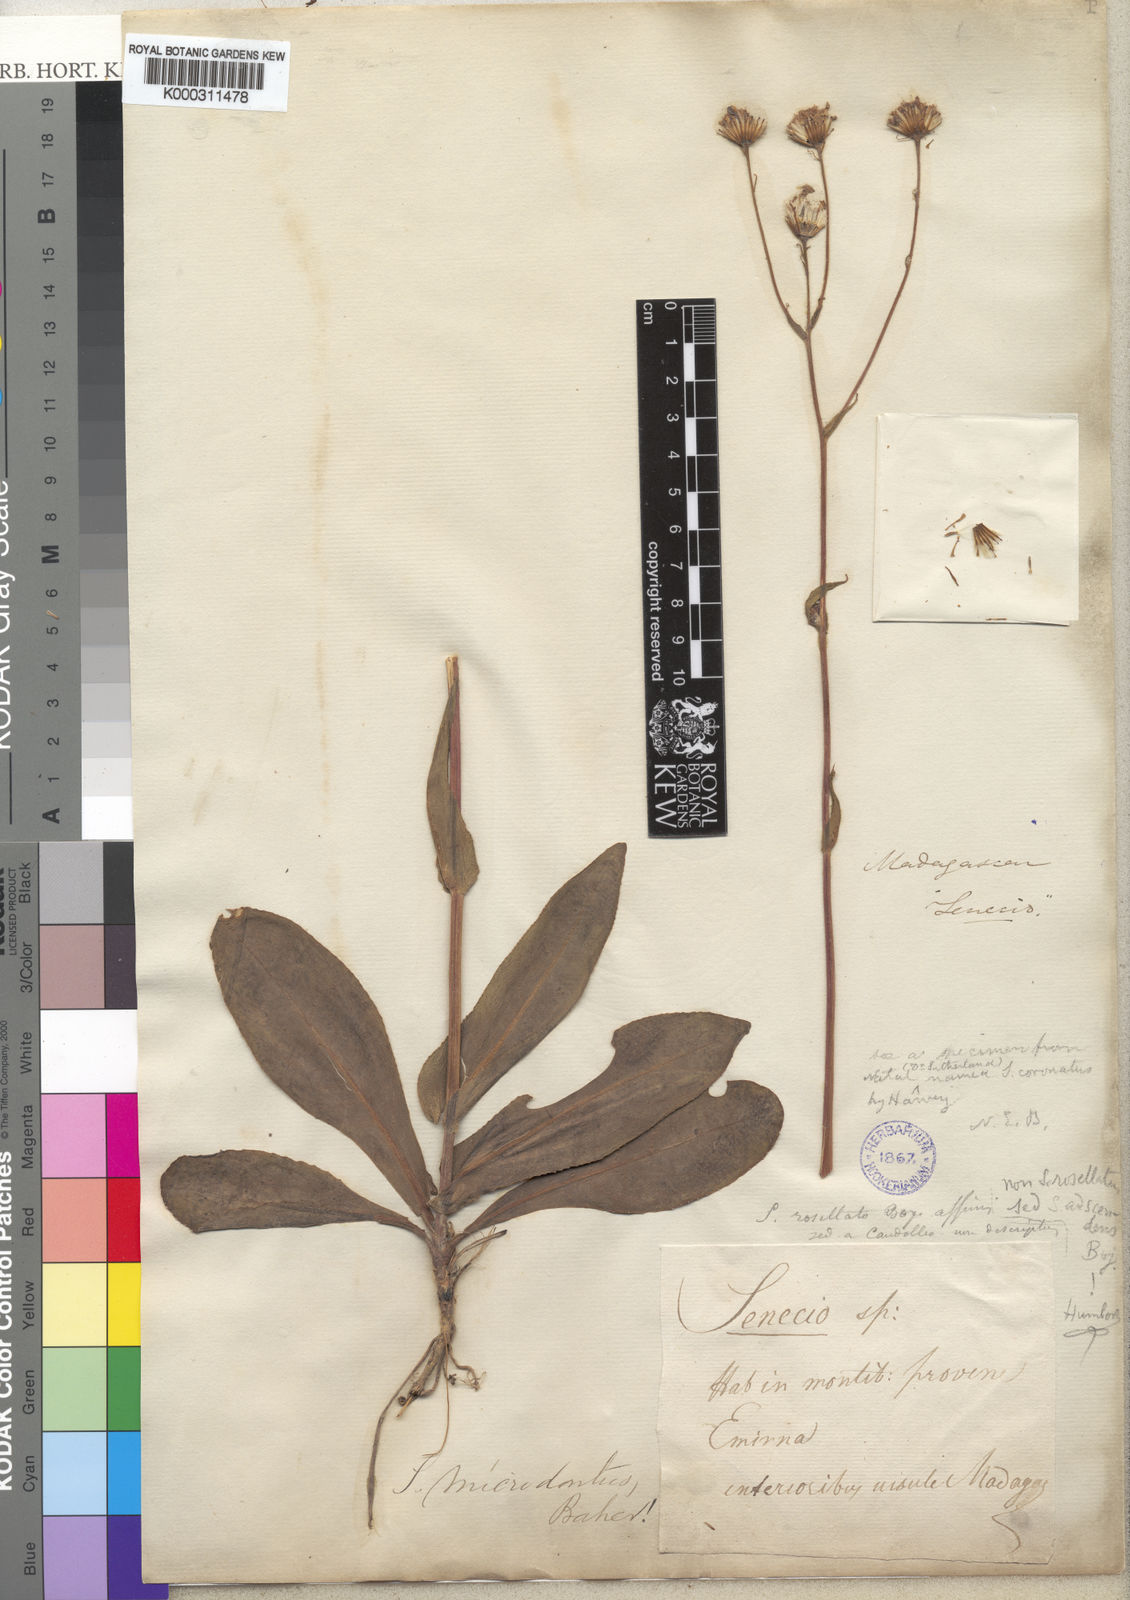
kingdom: Plantae
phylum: Tracheophyta
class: Magnoliopsida
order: Asterales
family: Asteraceae
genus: Senecio
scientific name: Senecio adscendens
